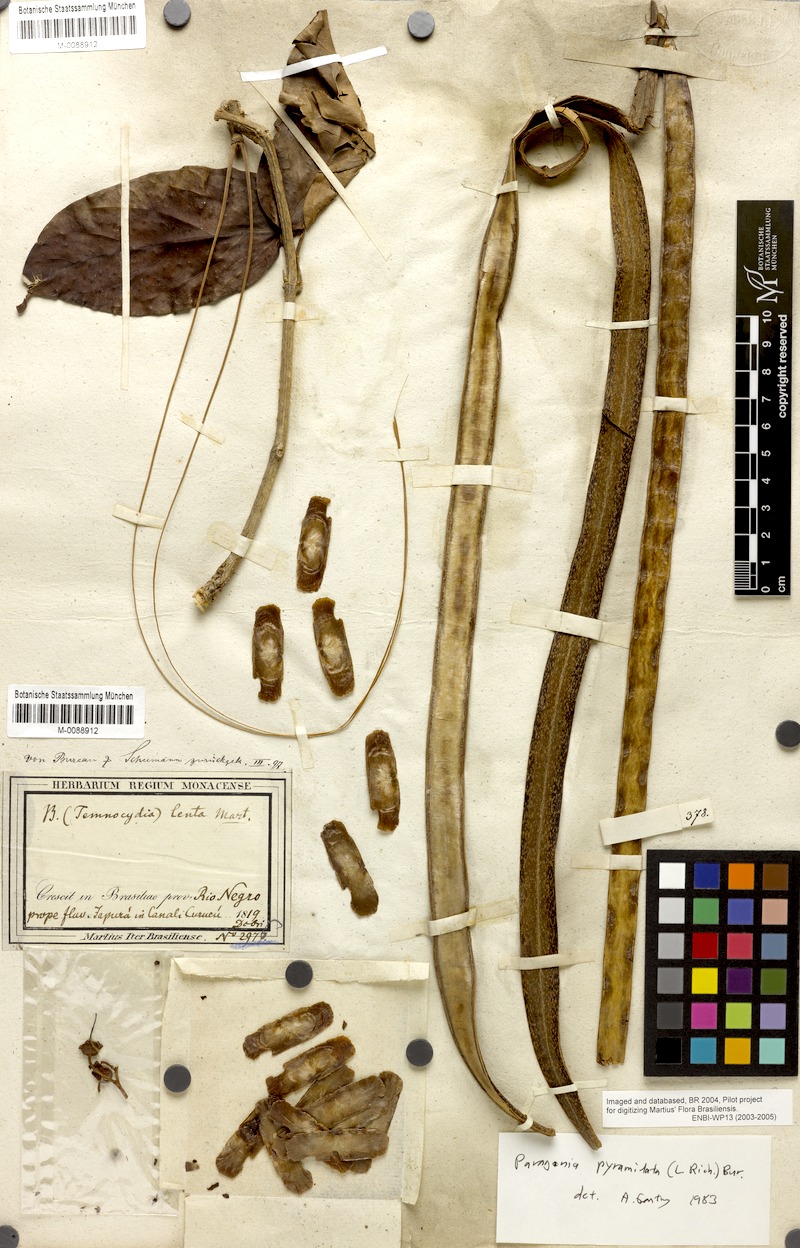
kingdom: Plantae
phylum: Tracheophyta
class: Magnoliopsida
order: Lamiales
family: Bignoniaceae
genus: Tanaecium
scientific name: Tanaecium pyramidatum
